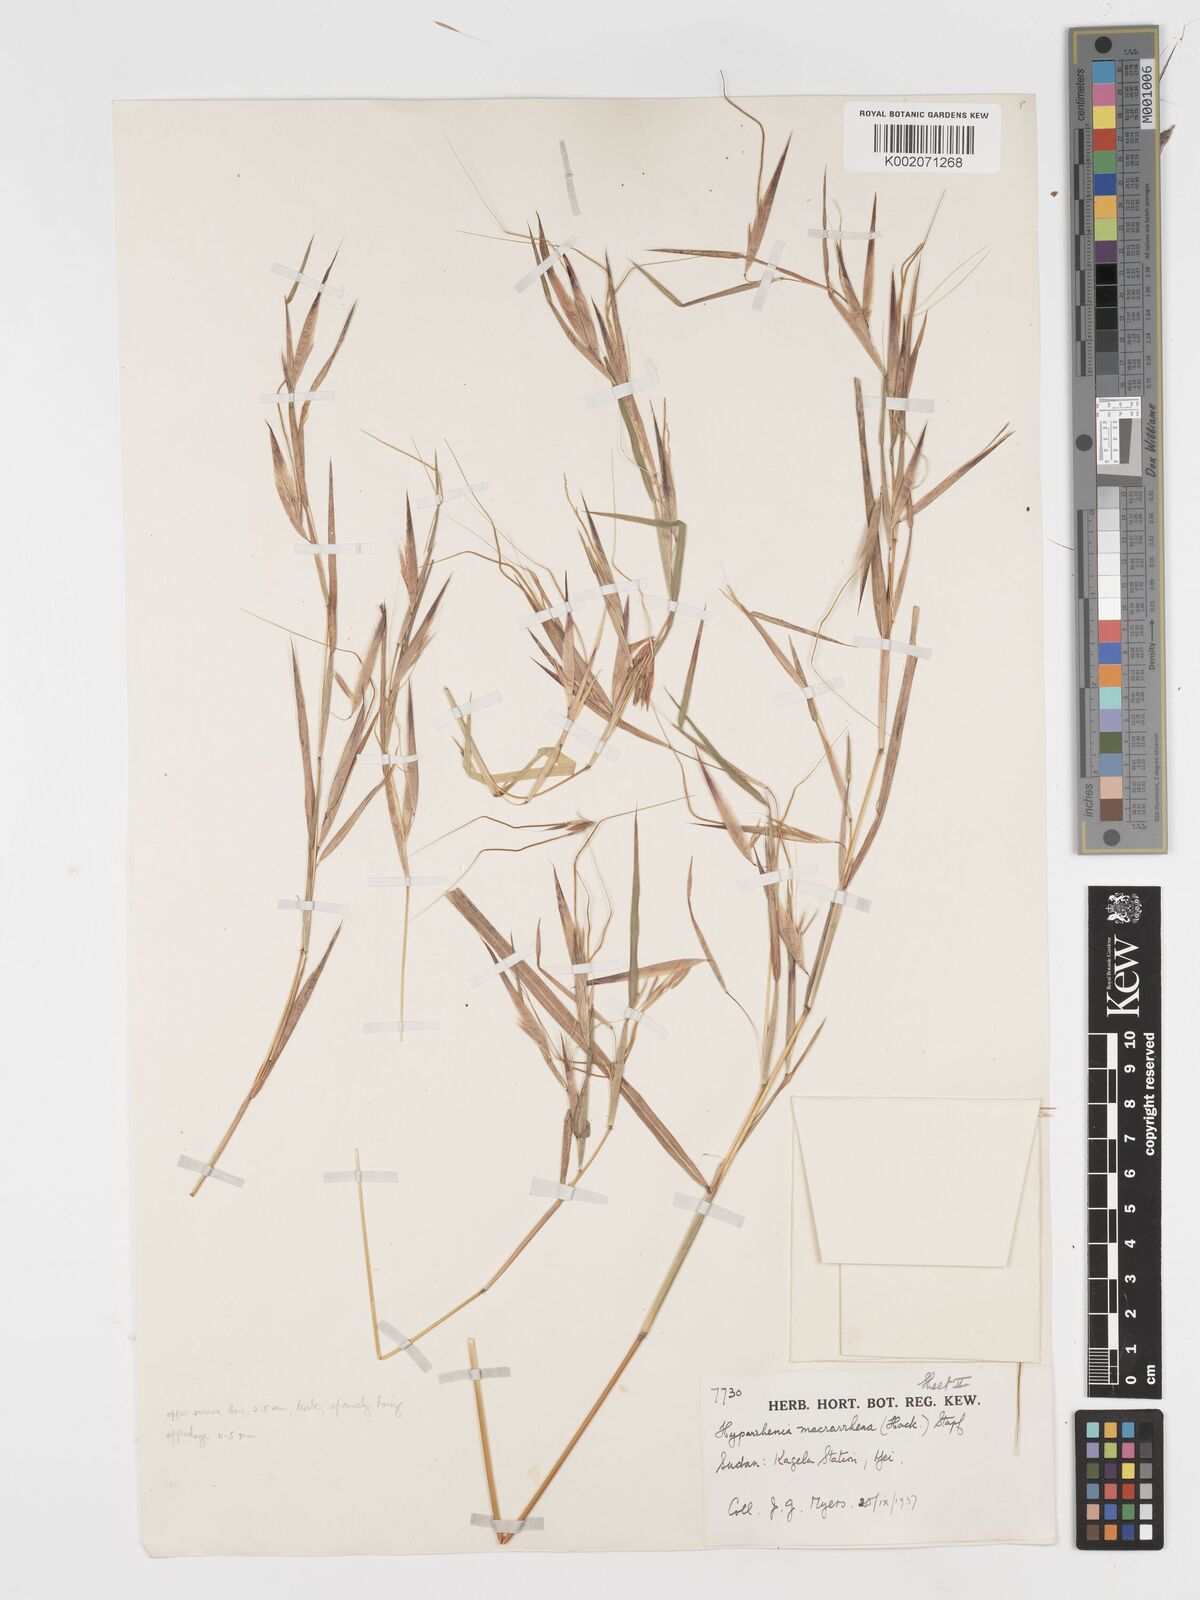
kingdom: Plantae
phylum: Tracheophyta
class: Liliopsida
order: Poales
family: Poaceae
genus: Hyparrhenia
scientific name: Hyparrhenia niariensis
